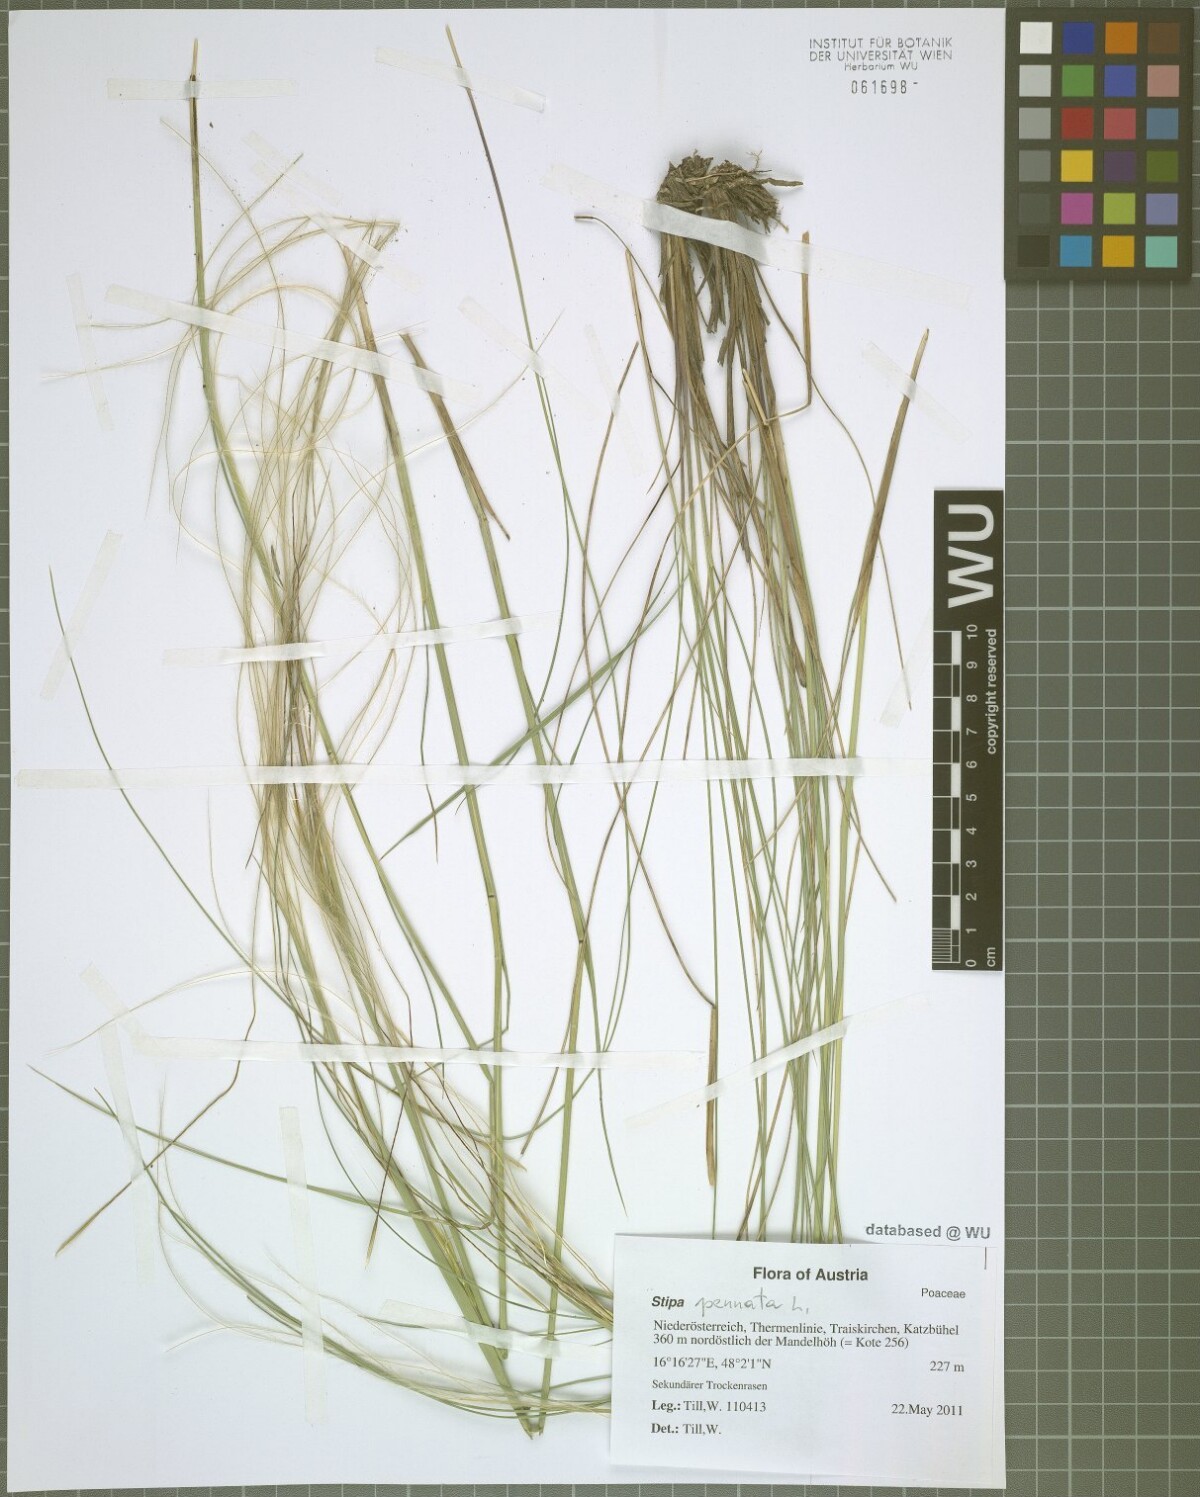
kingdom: Plantae
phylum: Tracheophyta
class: Liliopsida
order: Poales
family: Poaceae
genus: Stipa
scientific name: Stipa pennata
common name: European feather grass
